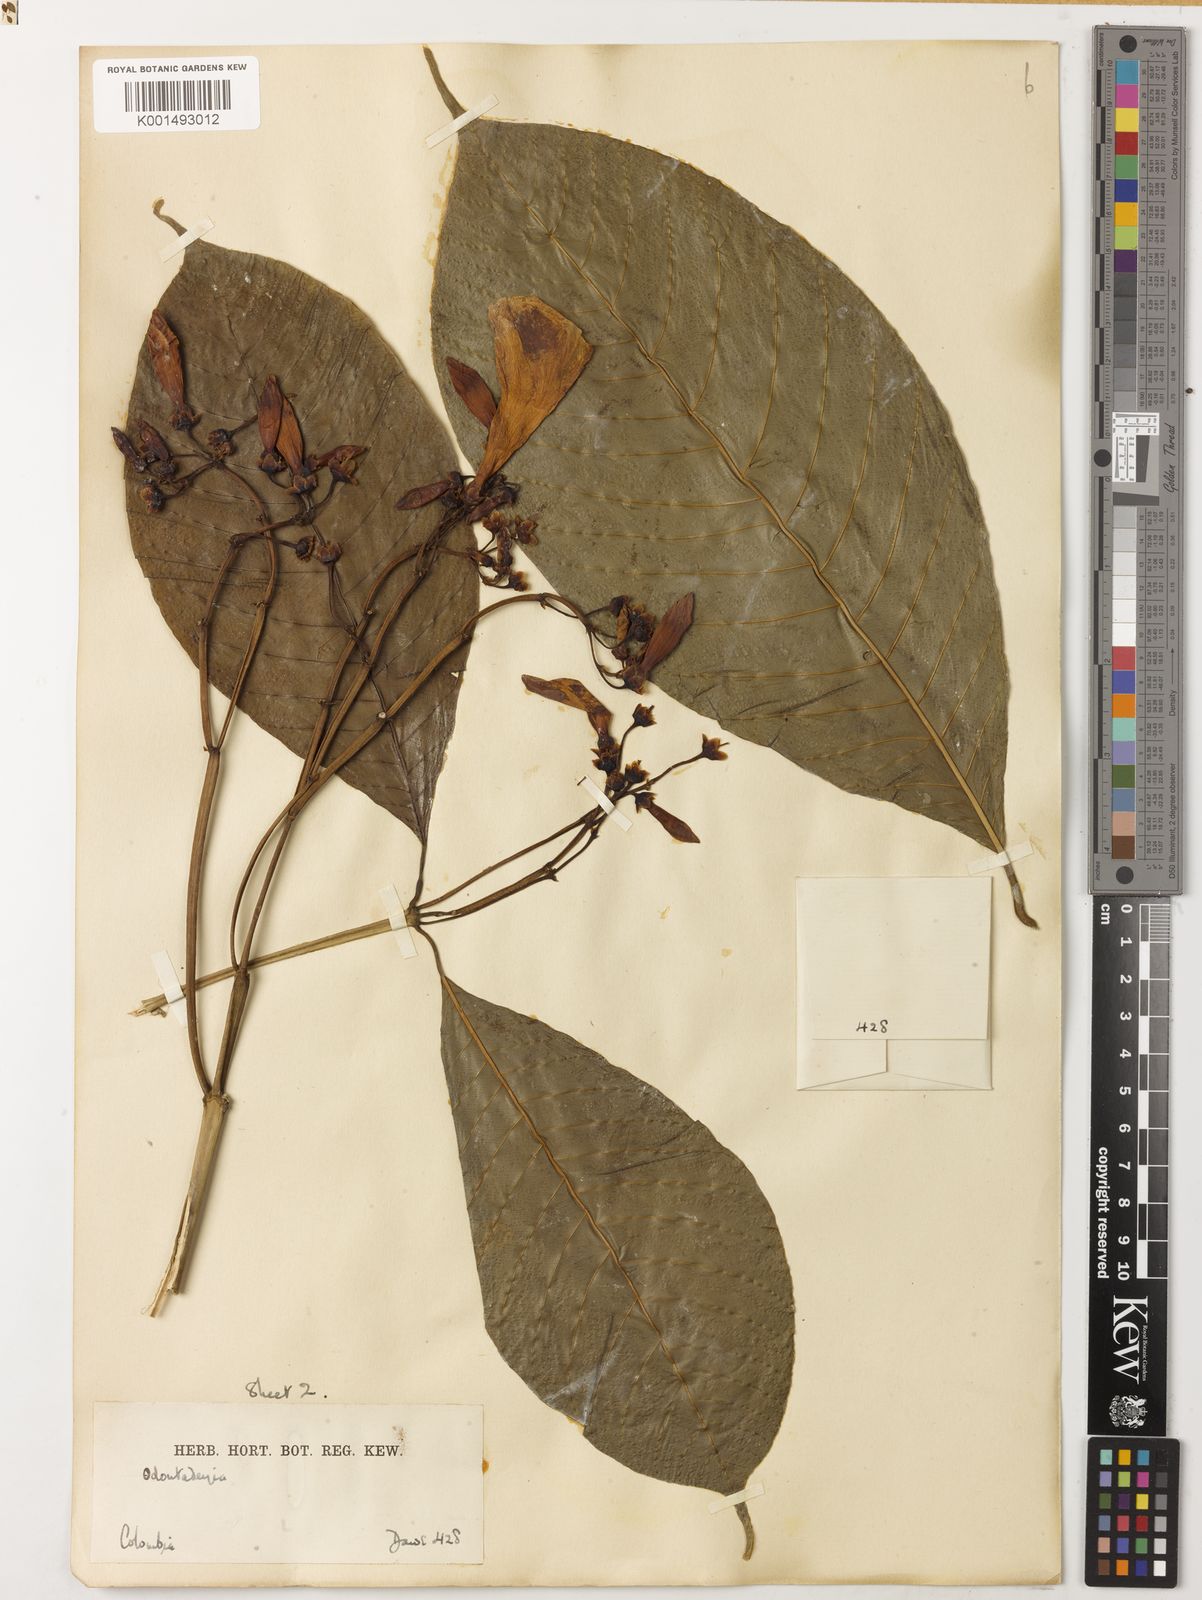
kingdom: Plantae
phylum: Tracheophyta
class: Magnoliopsida
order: Gentianales
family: Apocynaceae
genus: Odontadenia
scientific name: Odontadenia semidigyna
